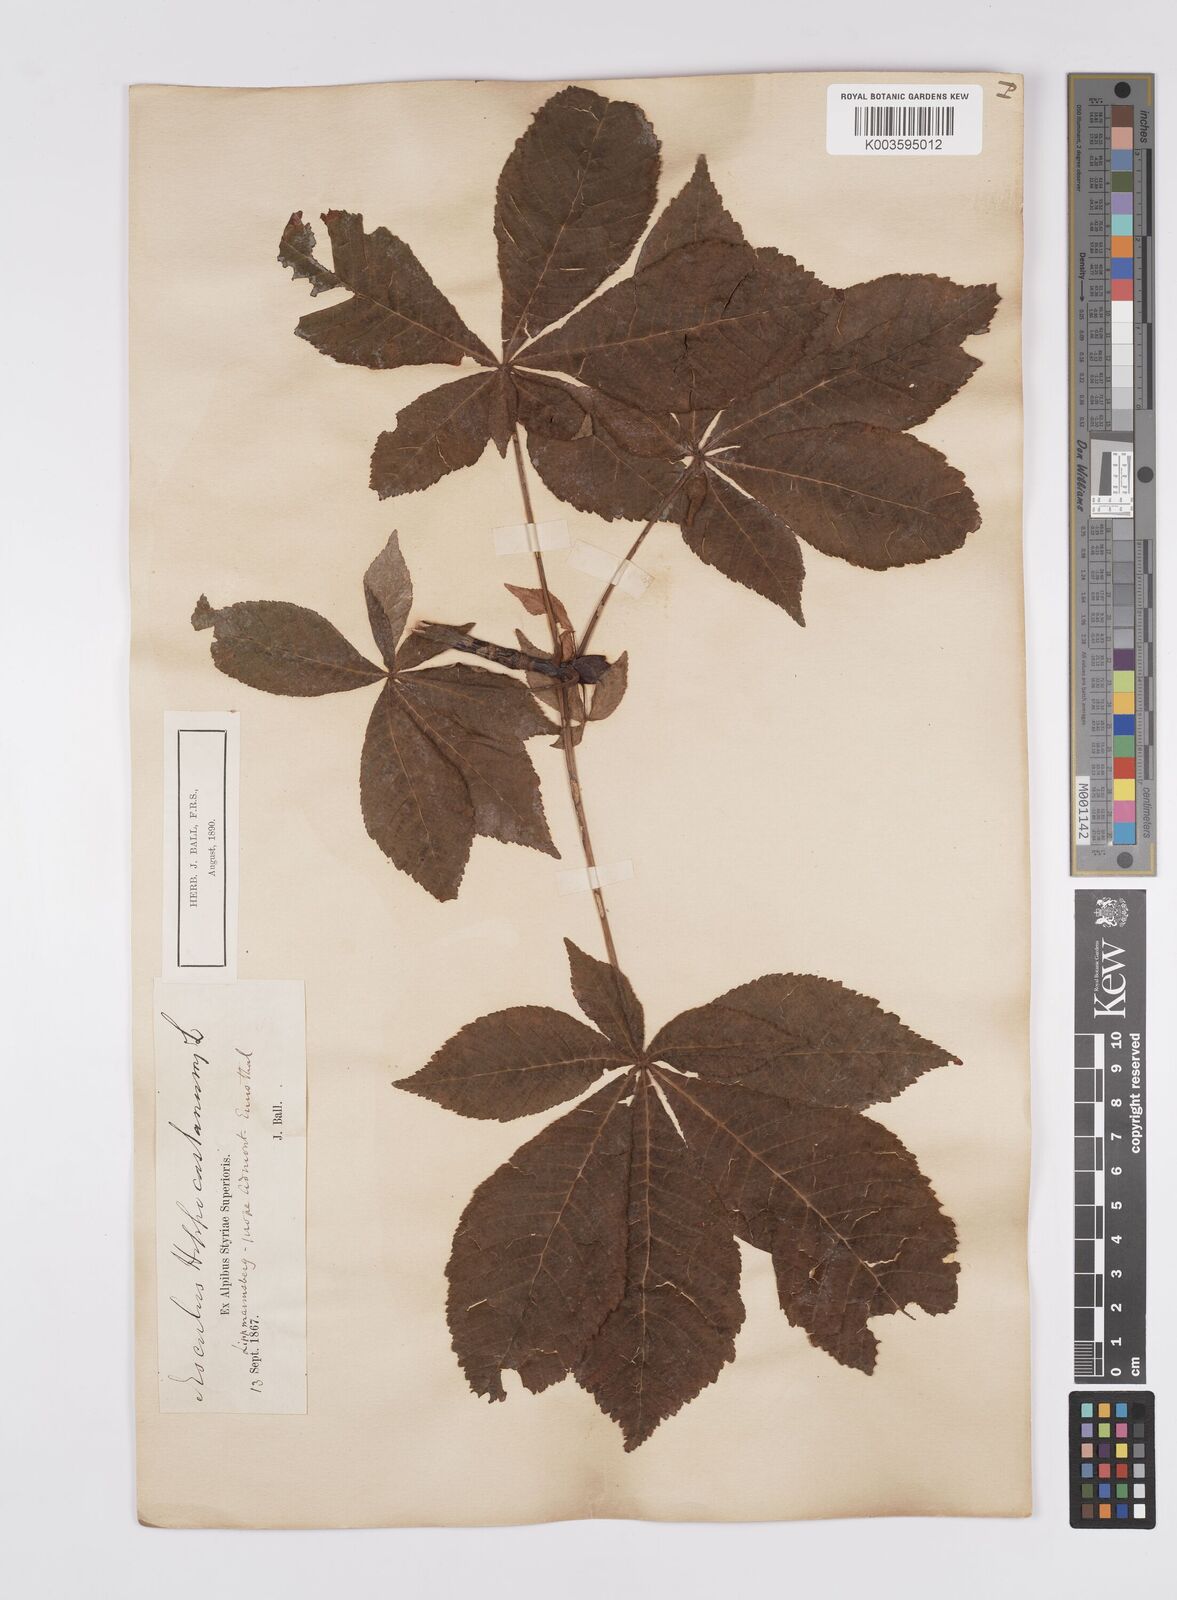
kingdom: Plantae
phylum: Tracheophyta
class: Magnoliopsida
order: Sapindales
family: Sapindaceae
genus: Aesculus
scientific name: Aesculus hippocastanum
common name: Horse-chestnut
